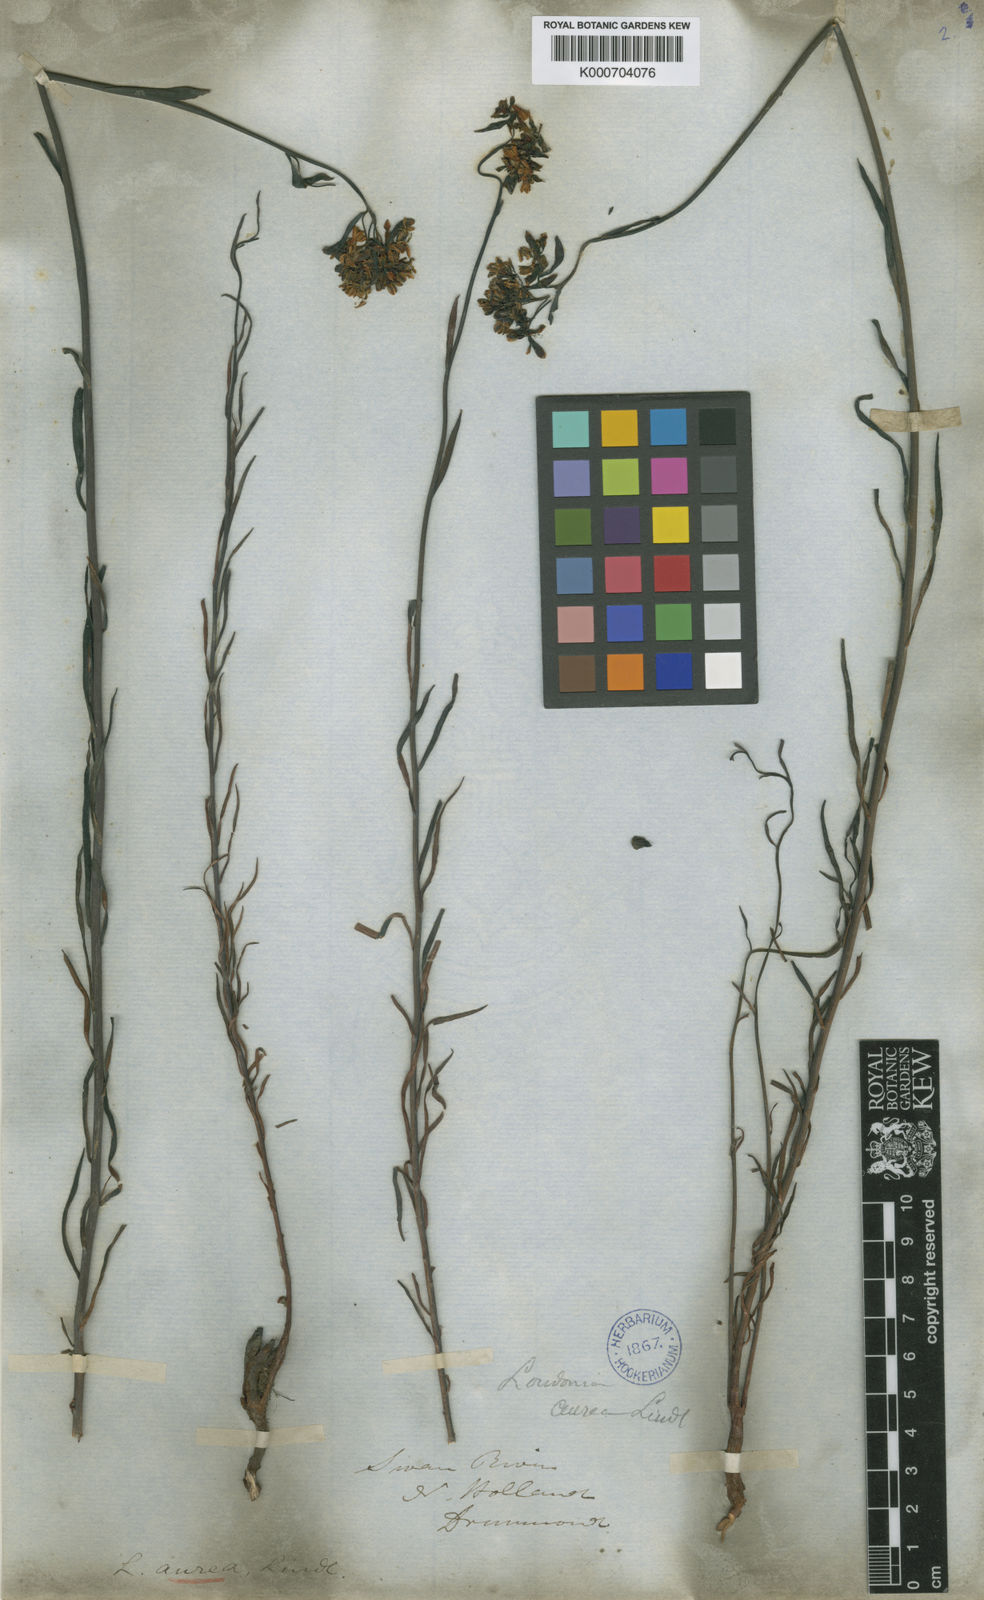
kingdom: Plantae
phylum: Tracheophyta
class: Magnoliopsida
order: Saxifragales
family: Haloragaceae
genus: Glischrocaryon
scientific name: Glischrocaryon aureum
